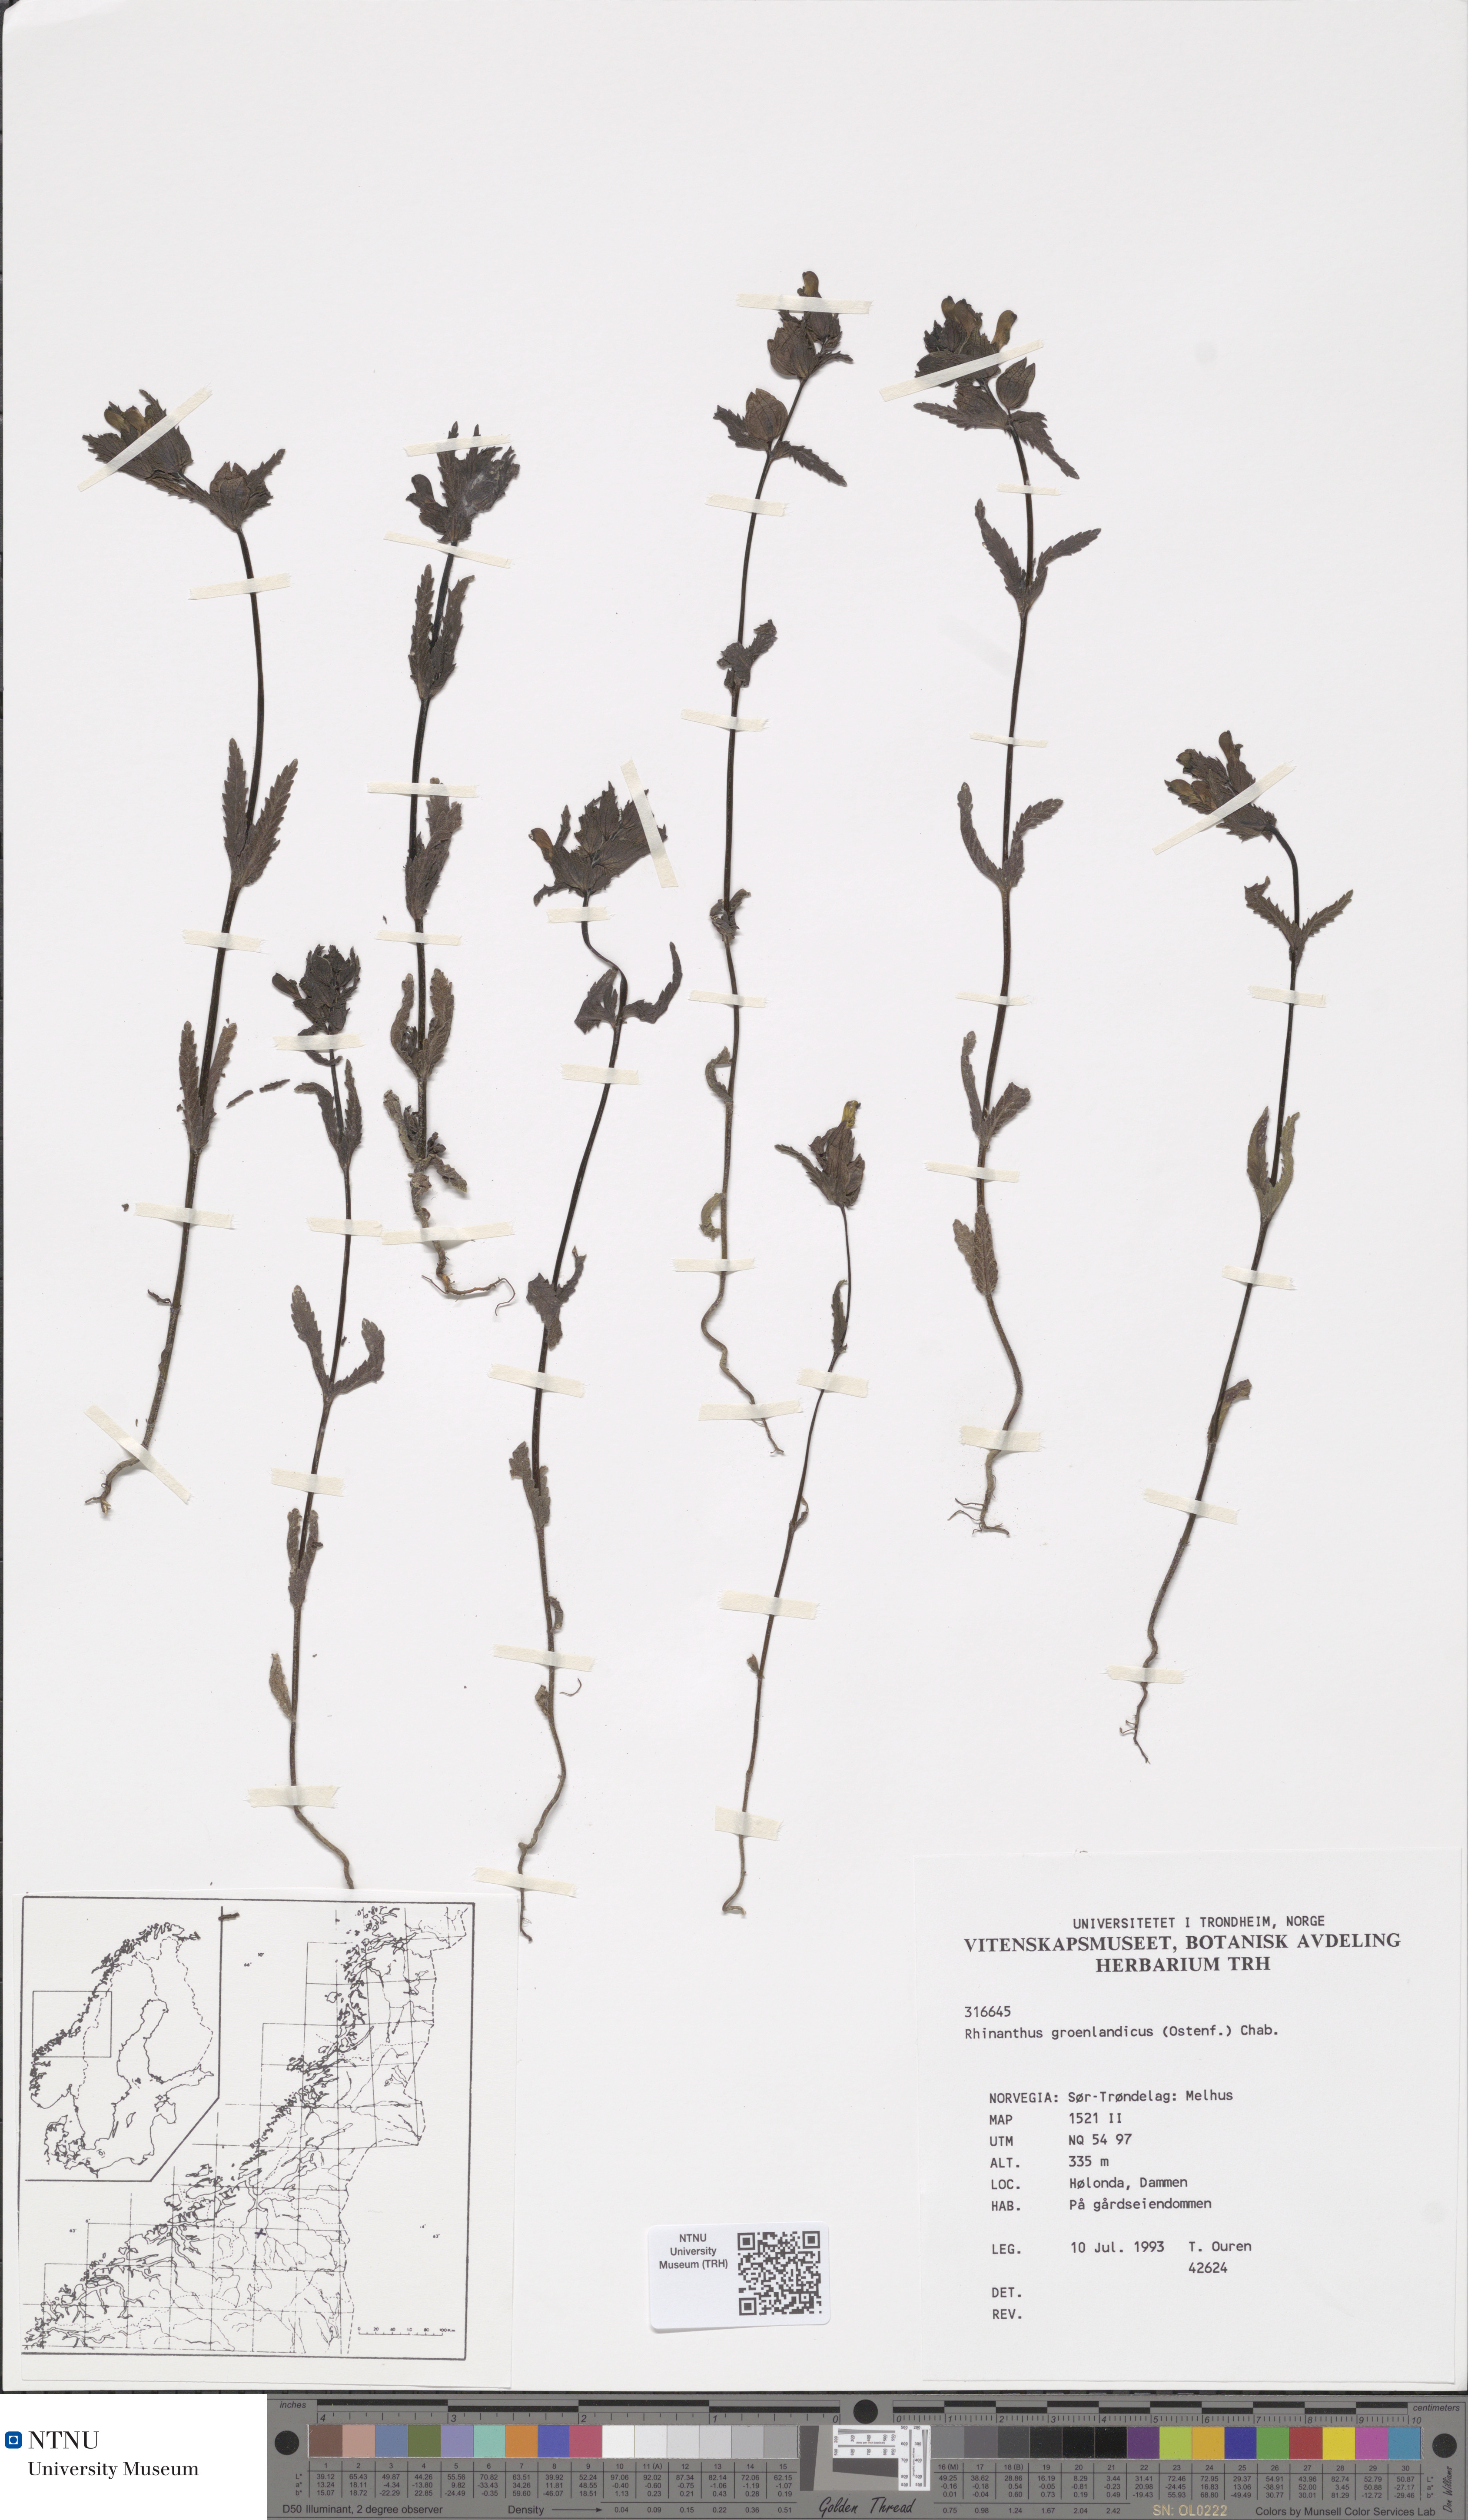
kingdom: Plantae
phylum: Tracheophyta
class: Magnoliopsida
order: Lamiales
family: Orobanchaceae
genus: Rhinanthus
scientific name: Rhinanthus groenlandicus
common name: Little yellow rattle
